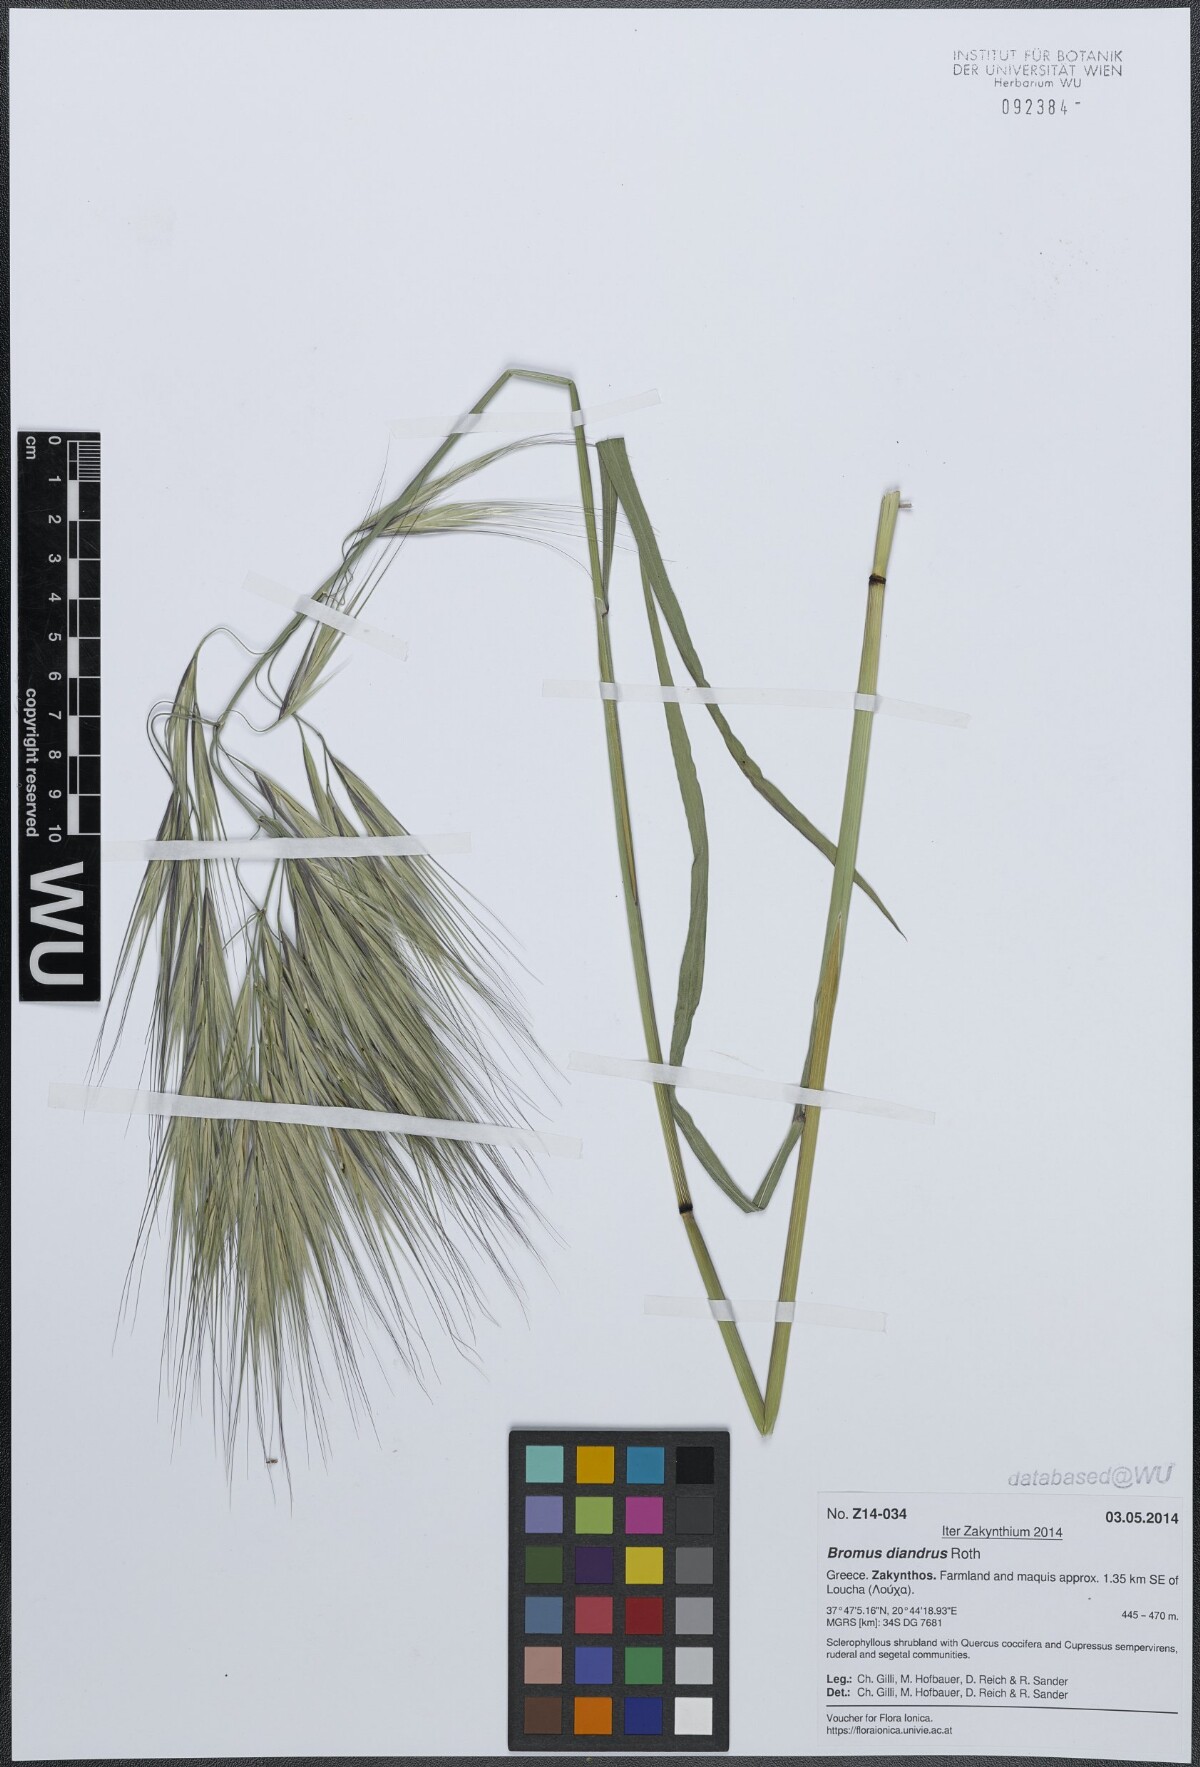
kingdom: Plantae
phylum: Tracheophyta
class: Liliopsida
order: Poales
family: Poaceae
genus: Bromus
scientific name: Bromus diandrus
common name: Ripgut brome
